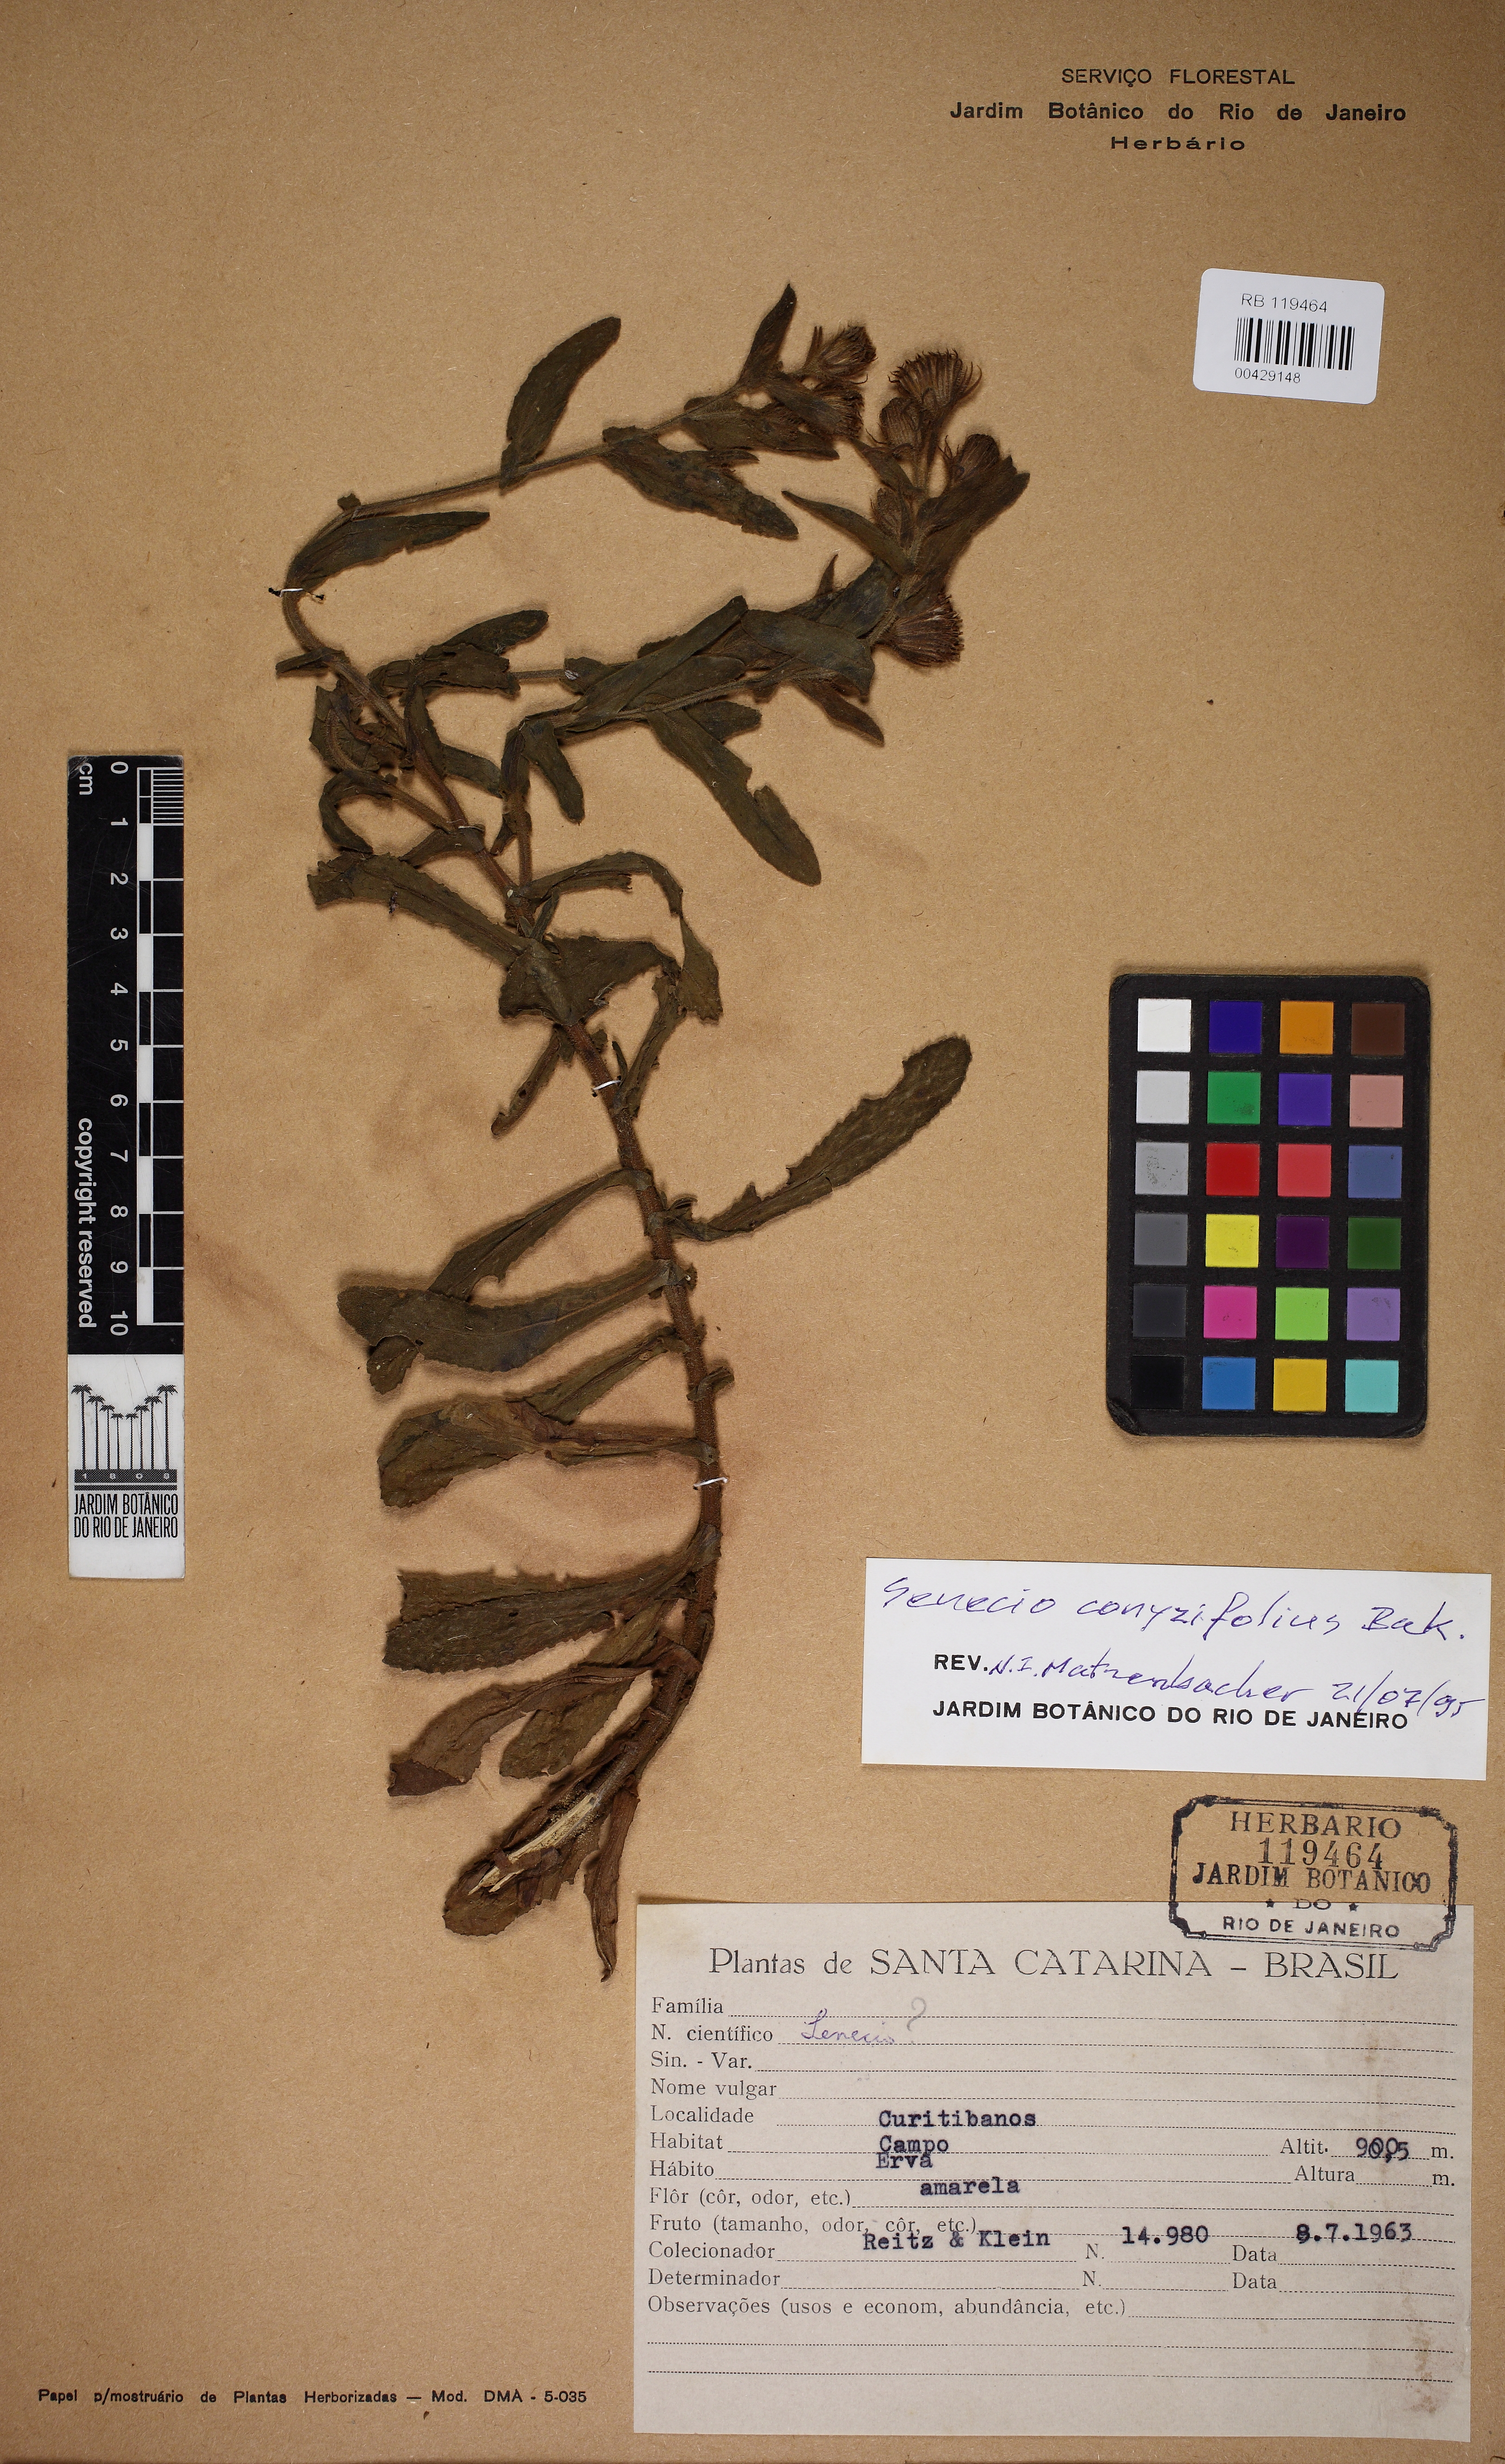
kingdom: Plantae
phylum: Tracheophyta
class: Magnoliopsida
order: Asterales
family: Asteraceae
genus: Senecio
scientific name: Senecio conyzaefolius
